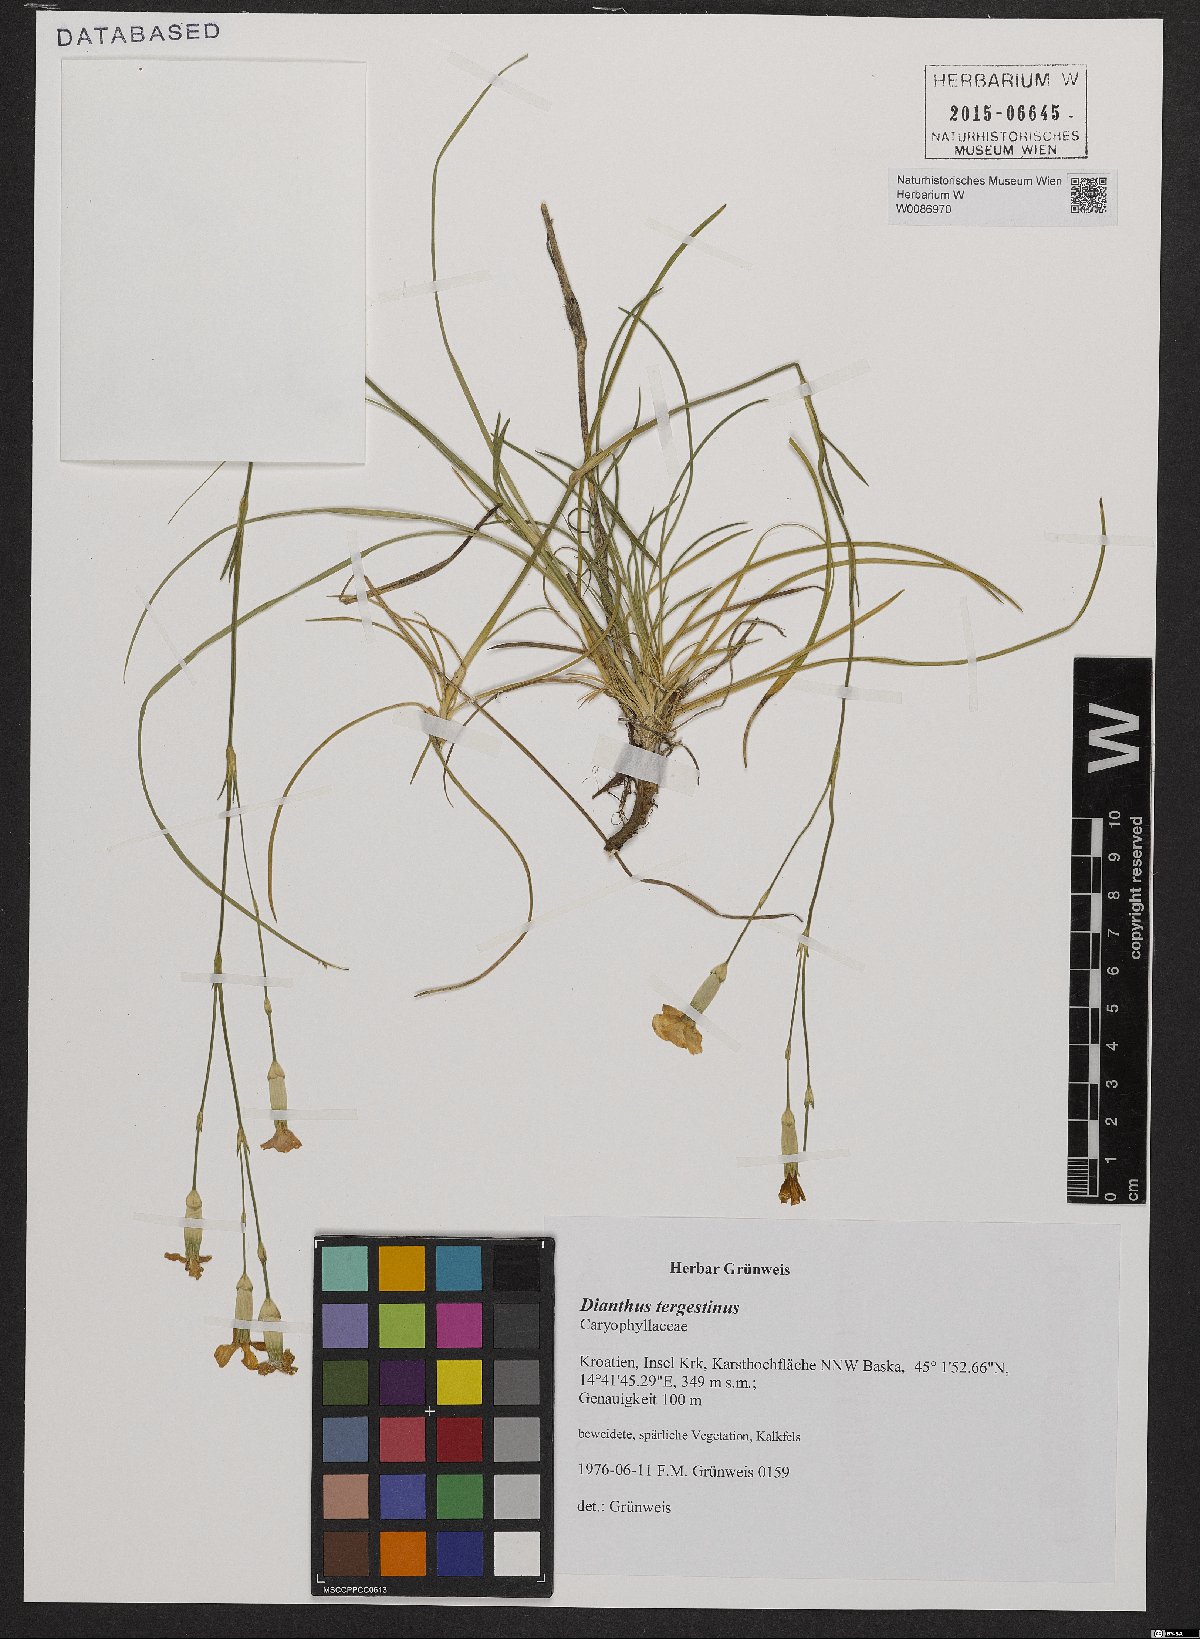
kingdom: Plantae
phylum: Tracheophyta
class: Magnoliopsida
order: Caryophyllales
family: Caryophyllaceae
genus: Dianthus
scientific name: Dianthus sylvestris
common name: Wood pink
